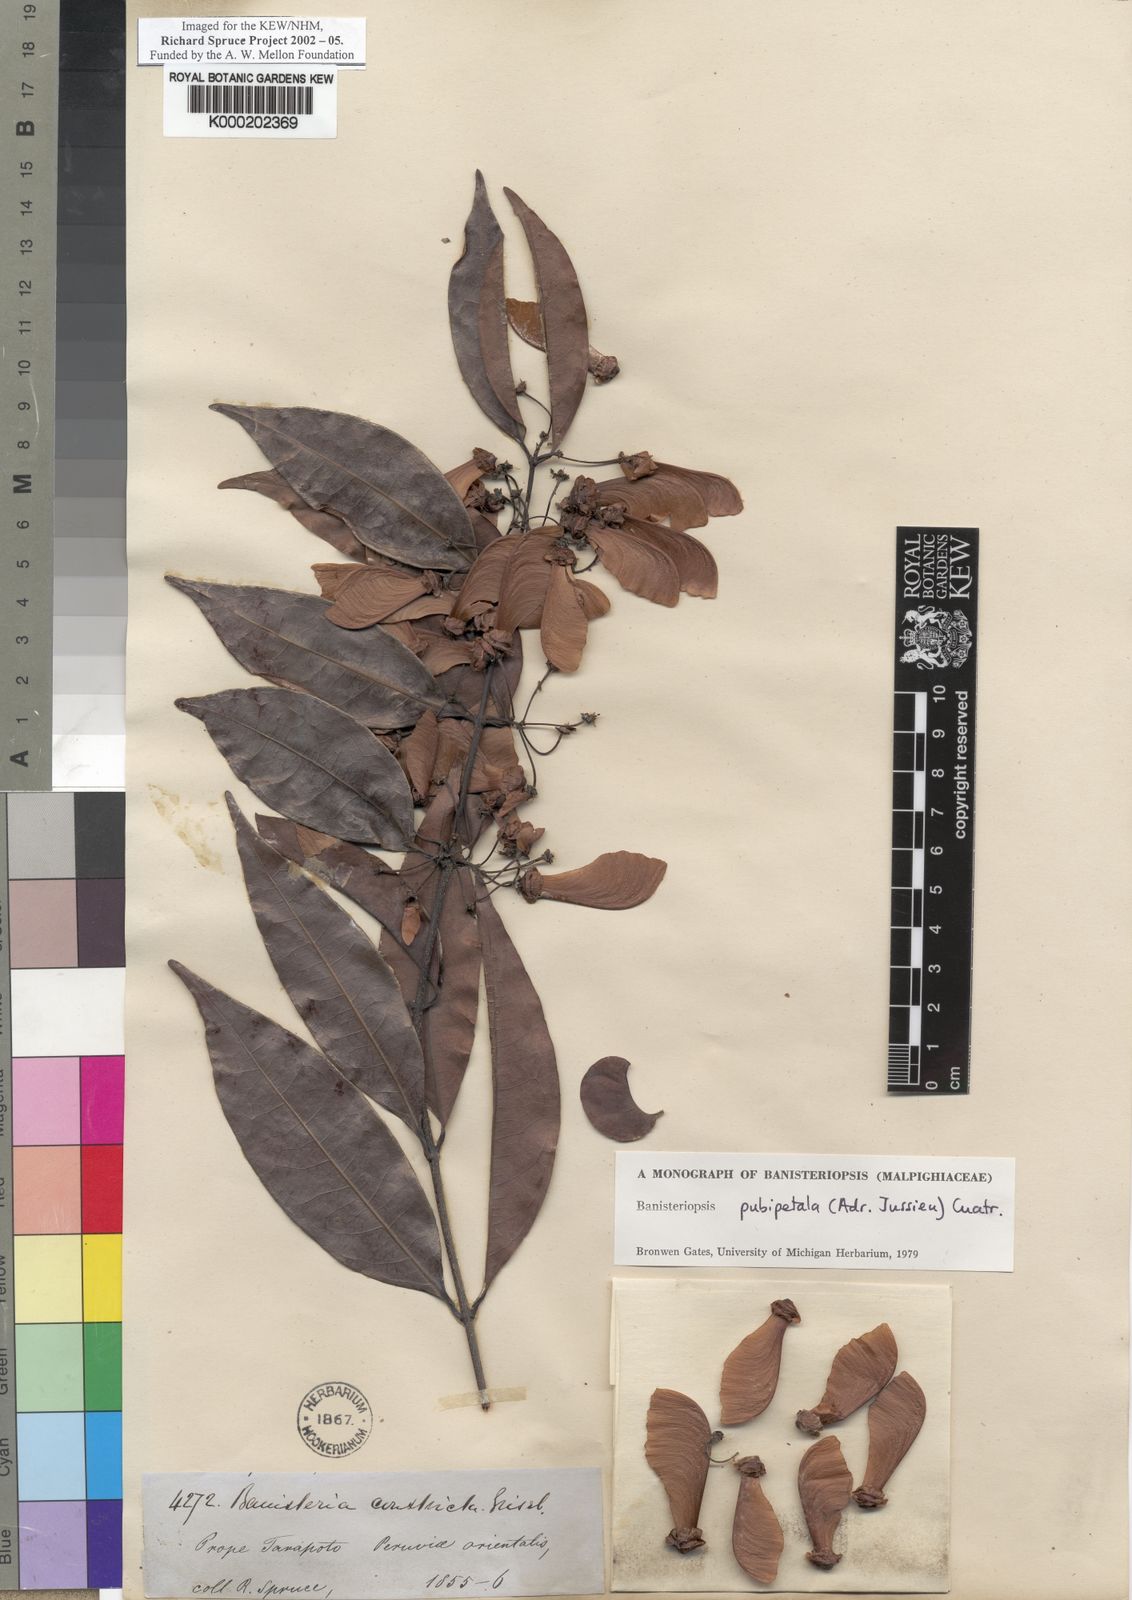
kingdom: Plantae
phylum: Tracheophyta
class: Magnoliopsida
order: Malpighiales
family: Malpighiaceae
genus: Diplopterys
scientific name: Diplopterys pubipetala
